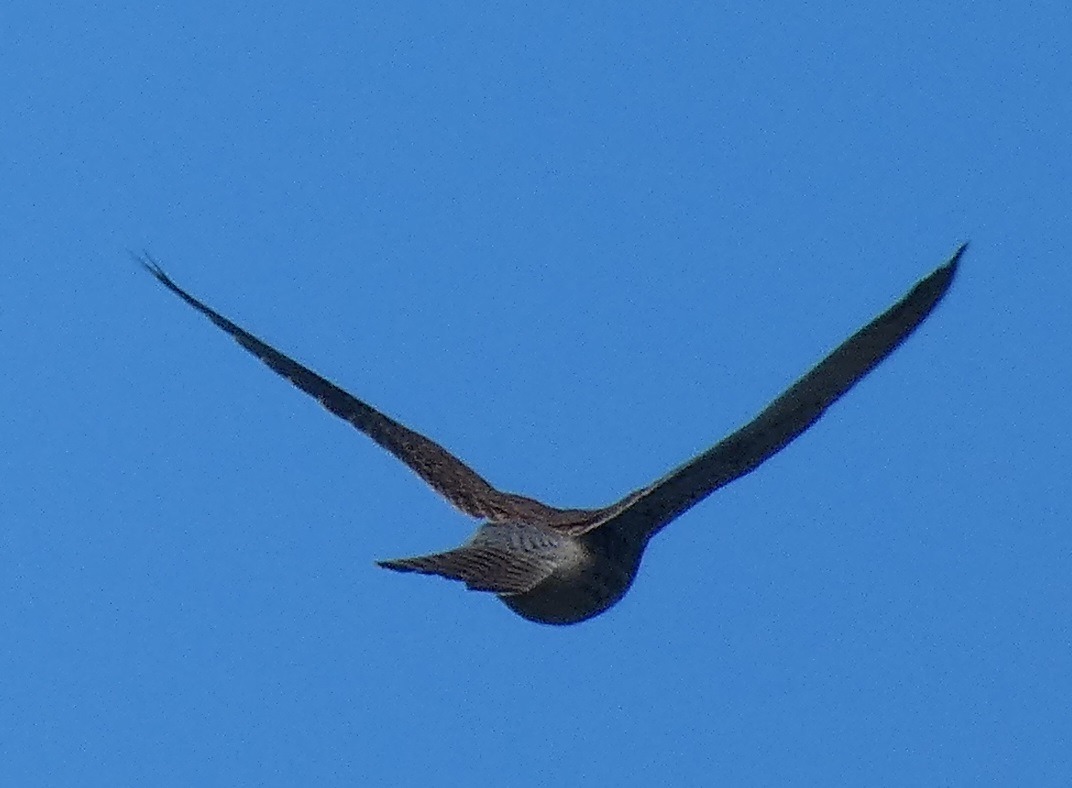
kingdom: Animalia
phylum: Chordata
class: Aves
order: Falconiformes
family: Falconidae
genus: Falco
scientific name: Falco tinnunculus
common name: Tårnfalk
